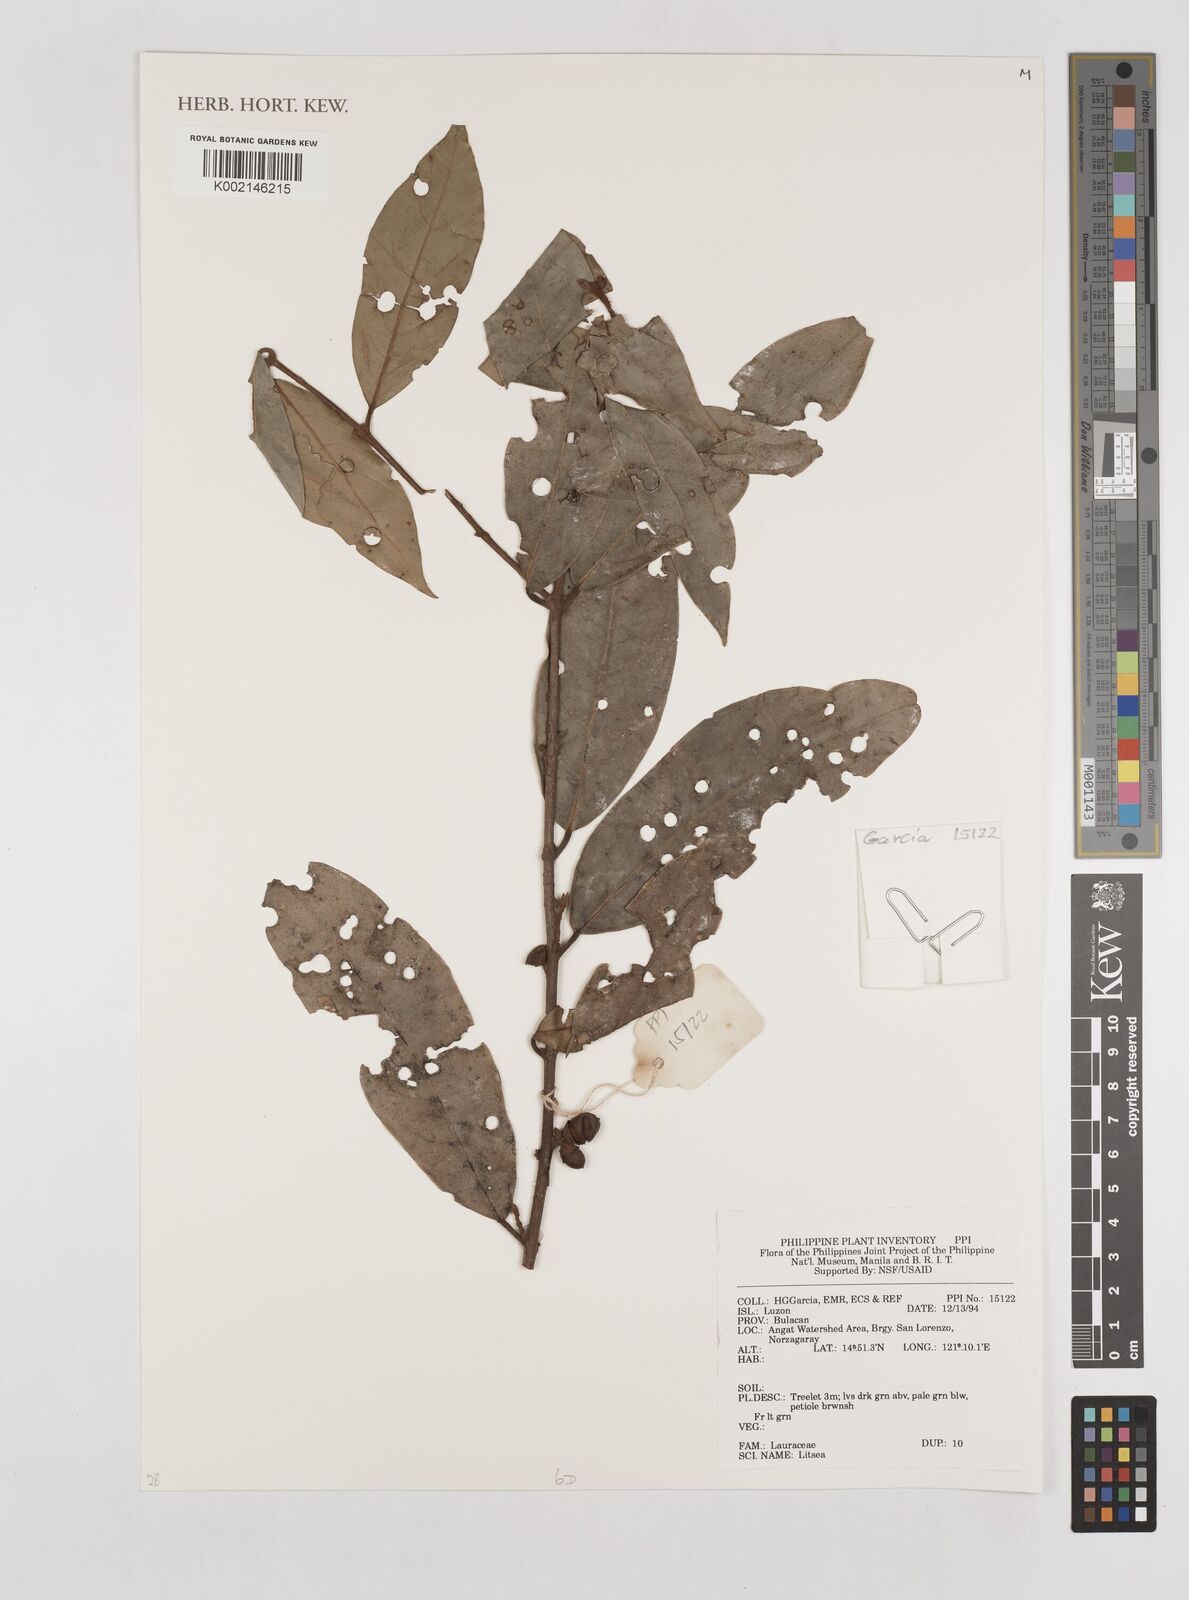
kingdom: Plantae
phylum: Tracheophyta
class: Magnoliopsida
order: Laurales
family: Lauraceae
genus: Litsea
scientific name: Litsea
